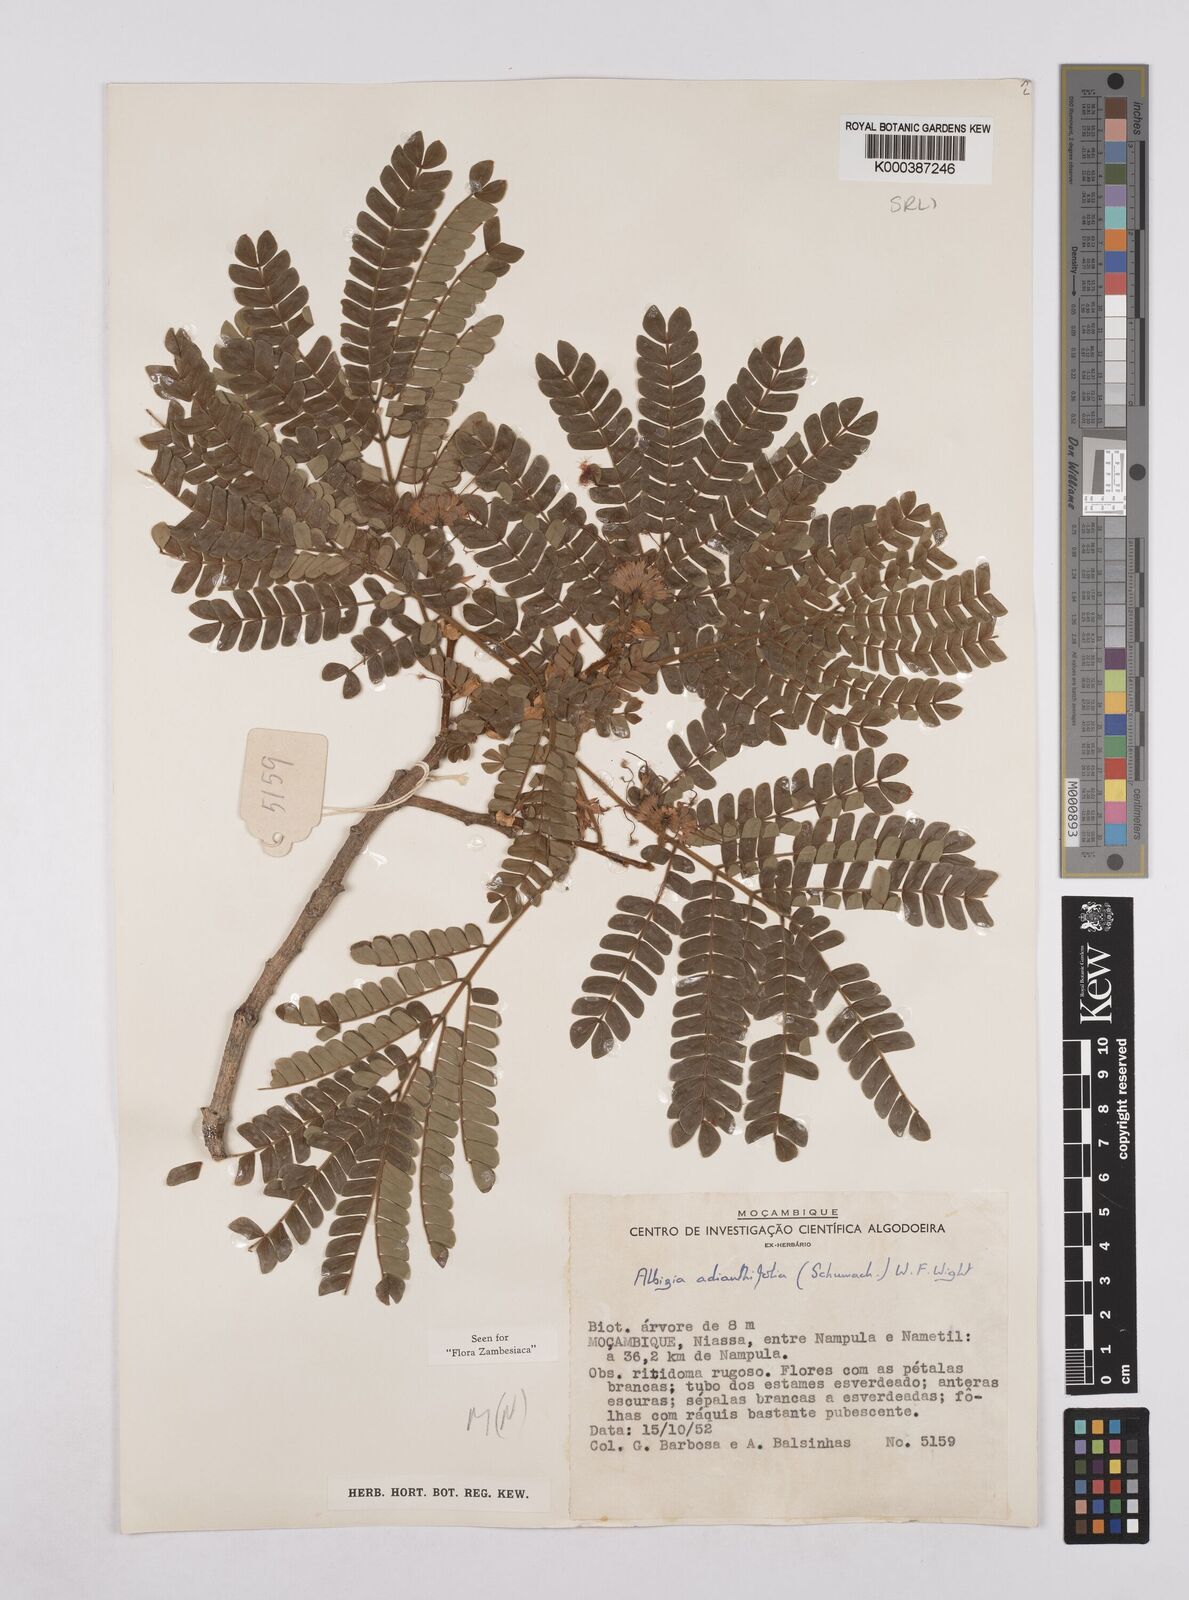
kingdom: Plantae
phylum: Tracheophyta
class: Magnoliopsida
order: Fabales
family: Fabaceae
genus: Albizia
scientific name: Albizia adianthifolia
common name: West african albizia
